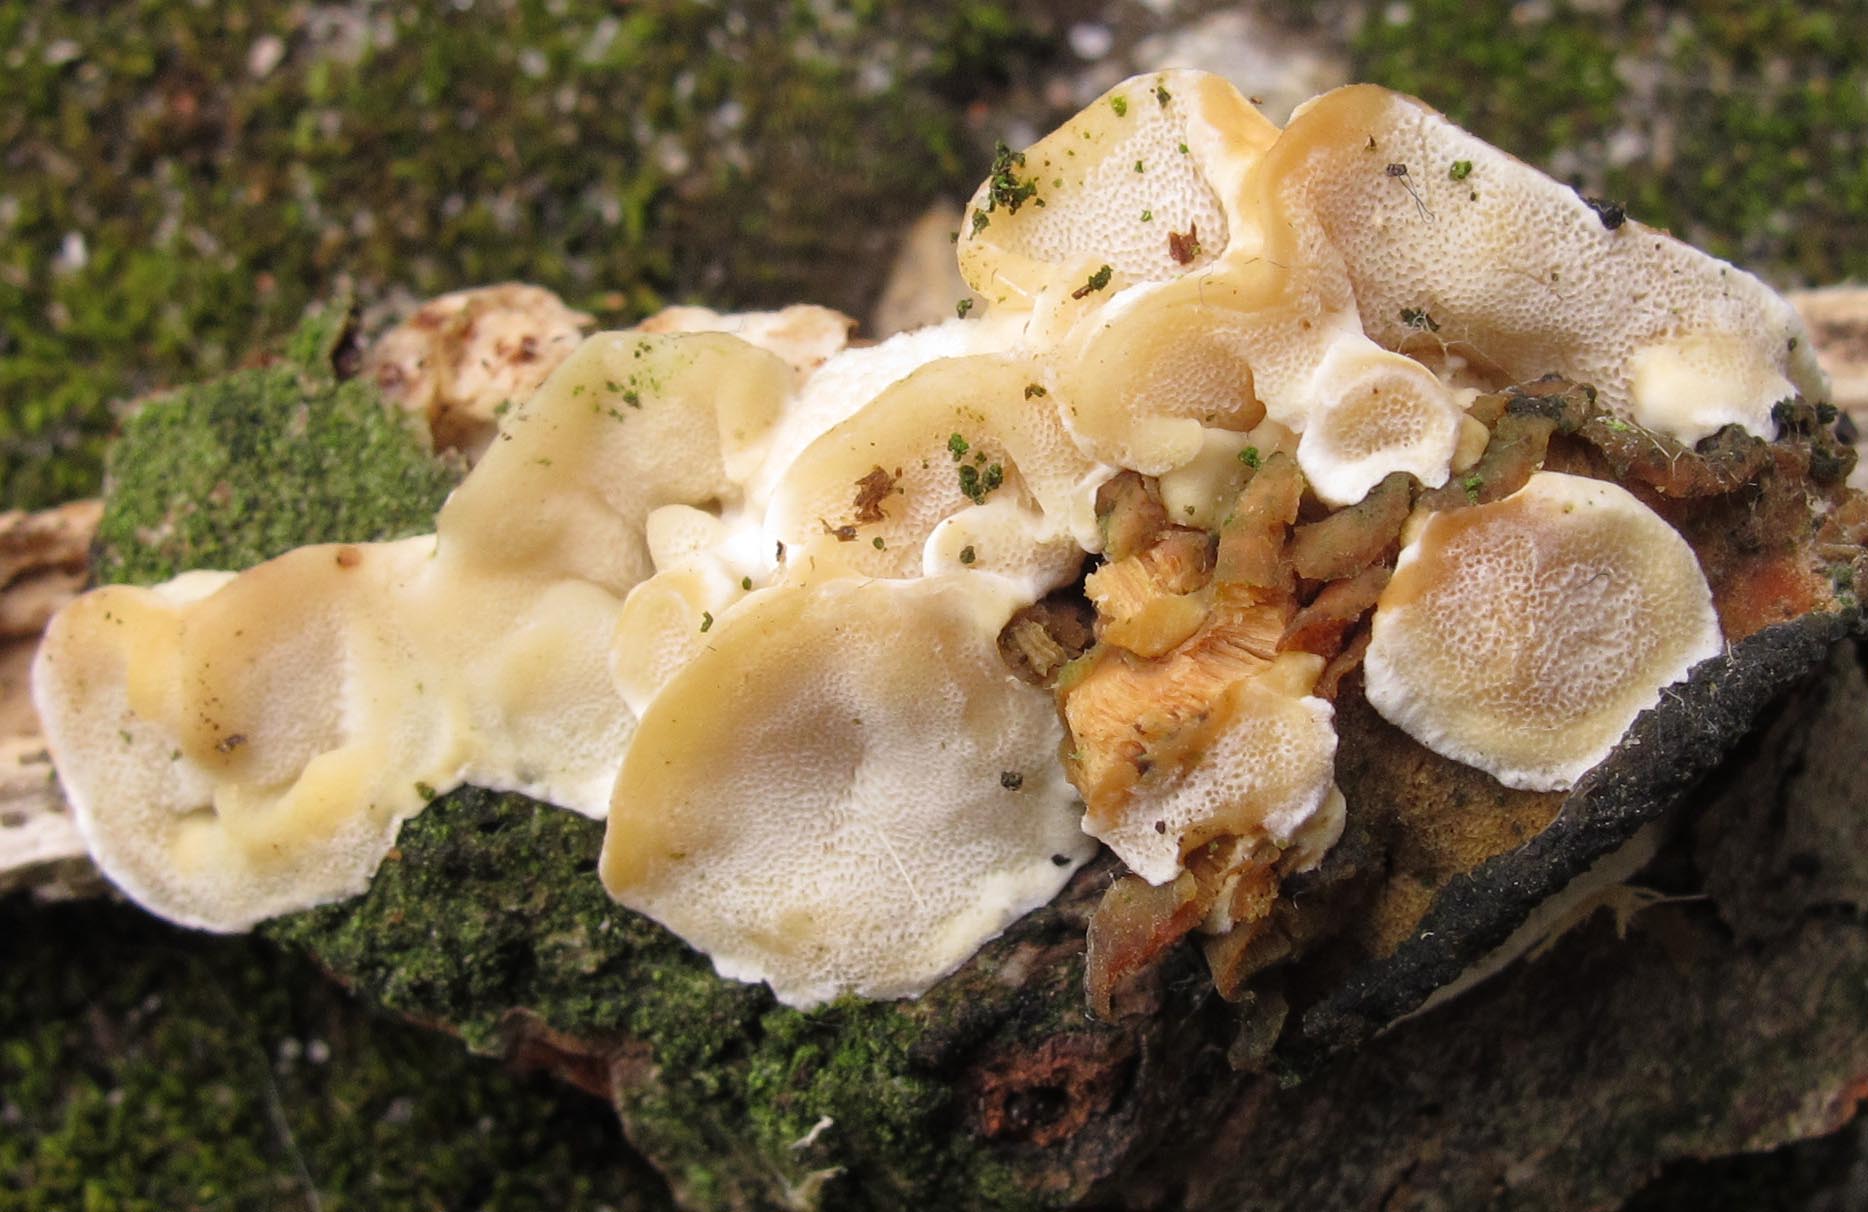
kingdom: Fungi
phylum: Basidiomycota
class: Agaricomycetes
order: Polyporales
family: Steccherinaceae
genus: Antrodiella
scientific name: Antrodiella faginea
